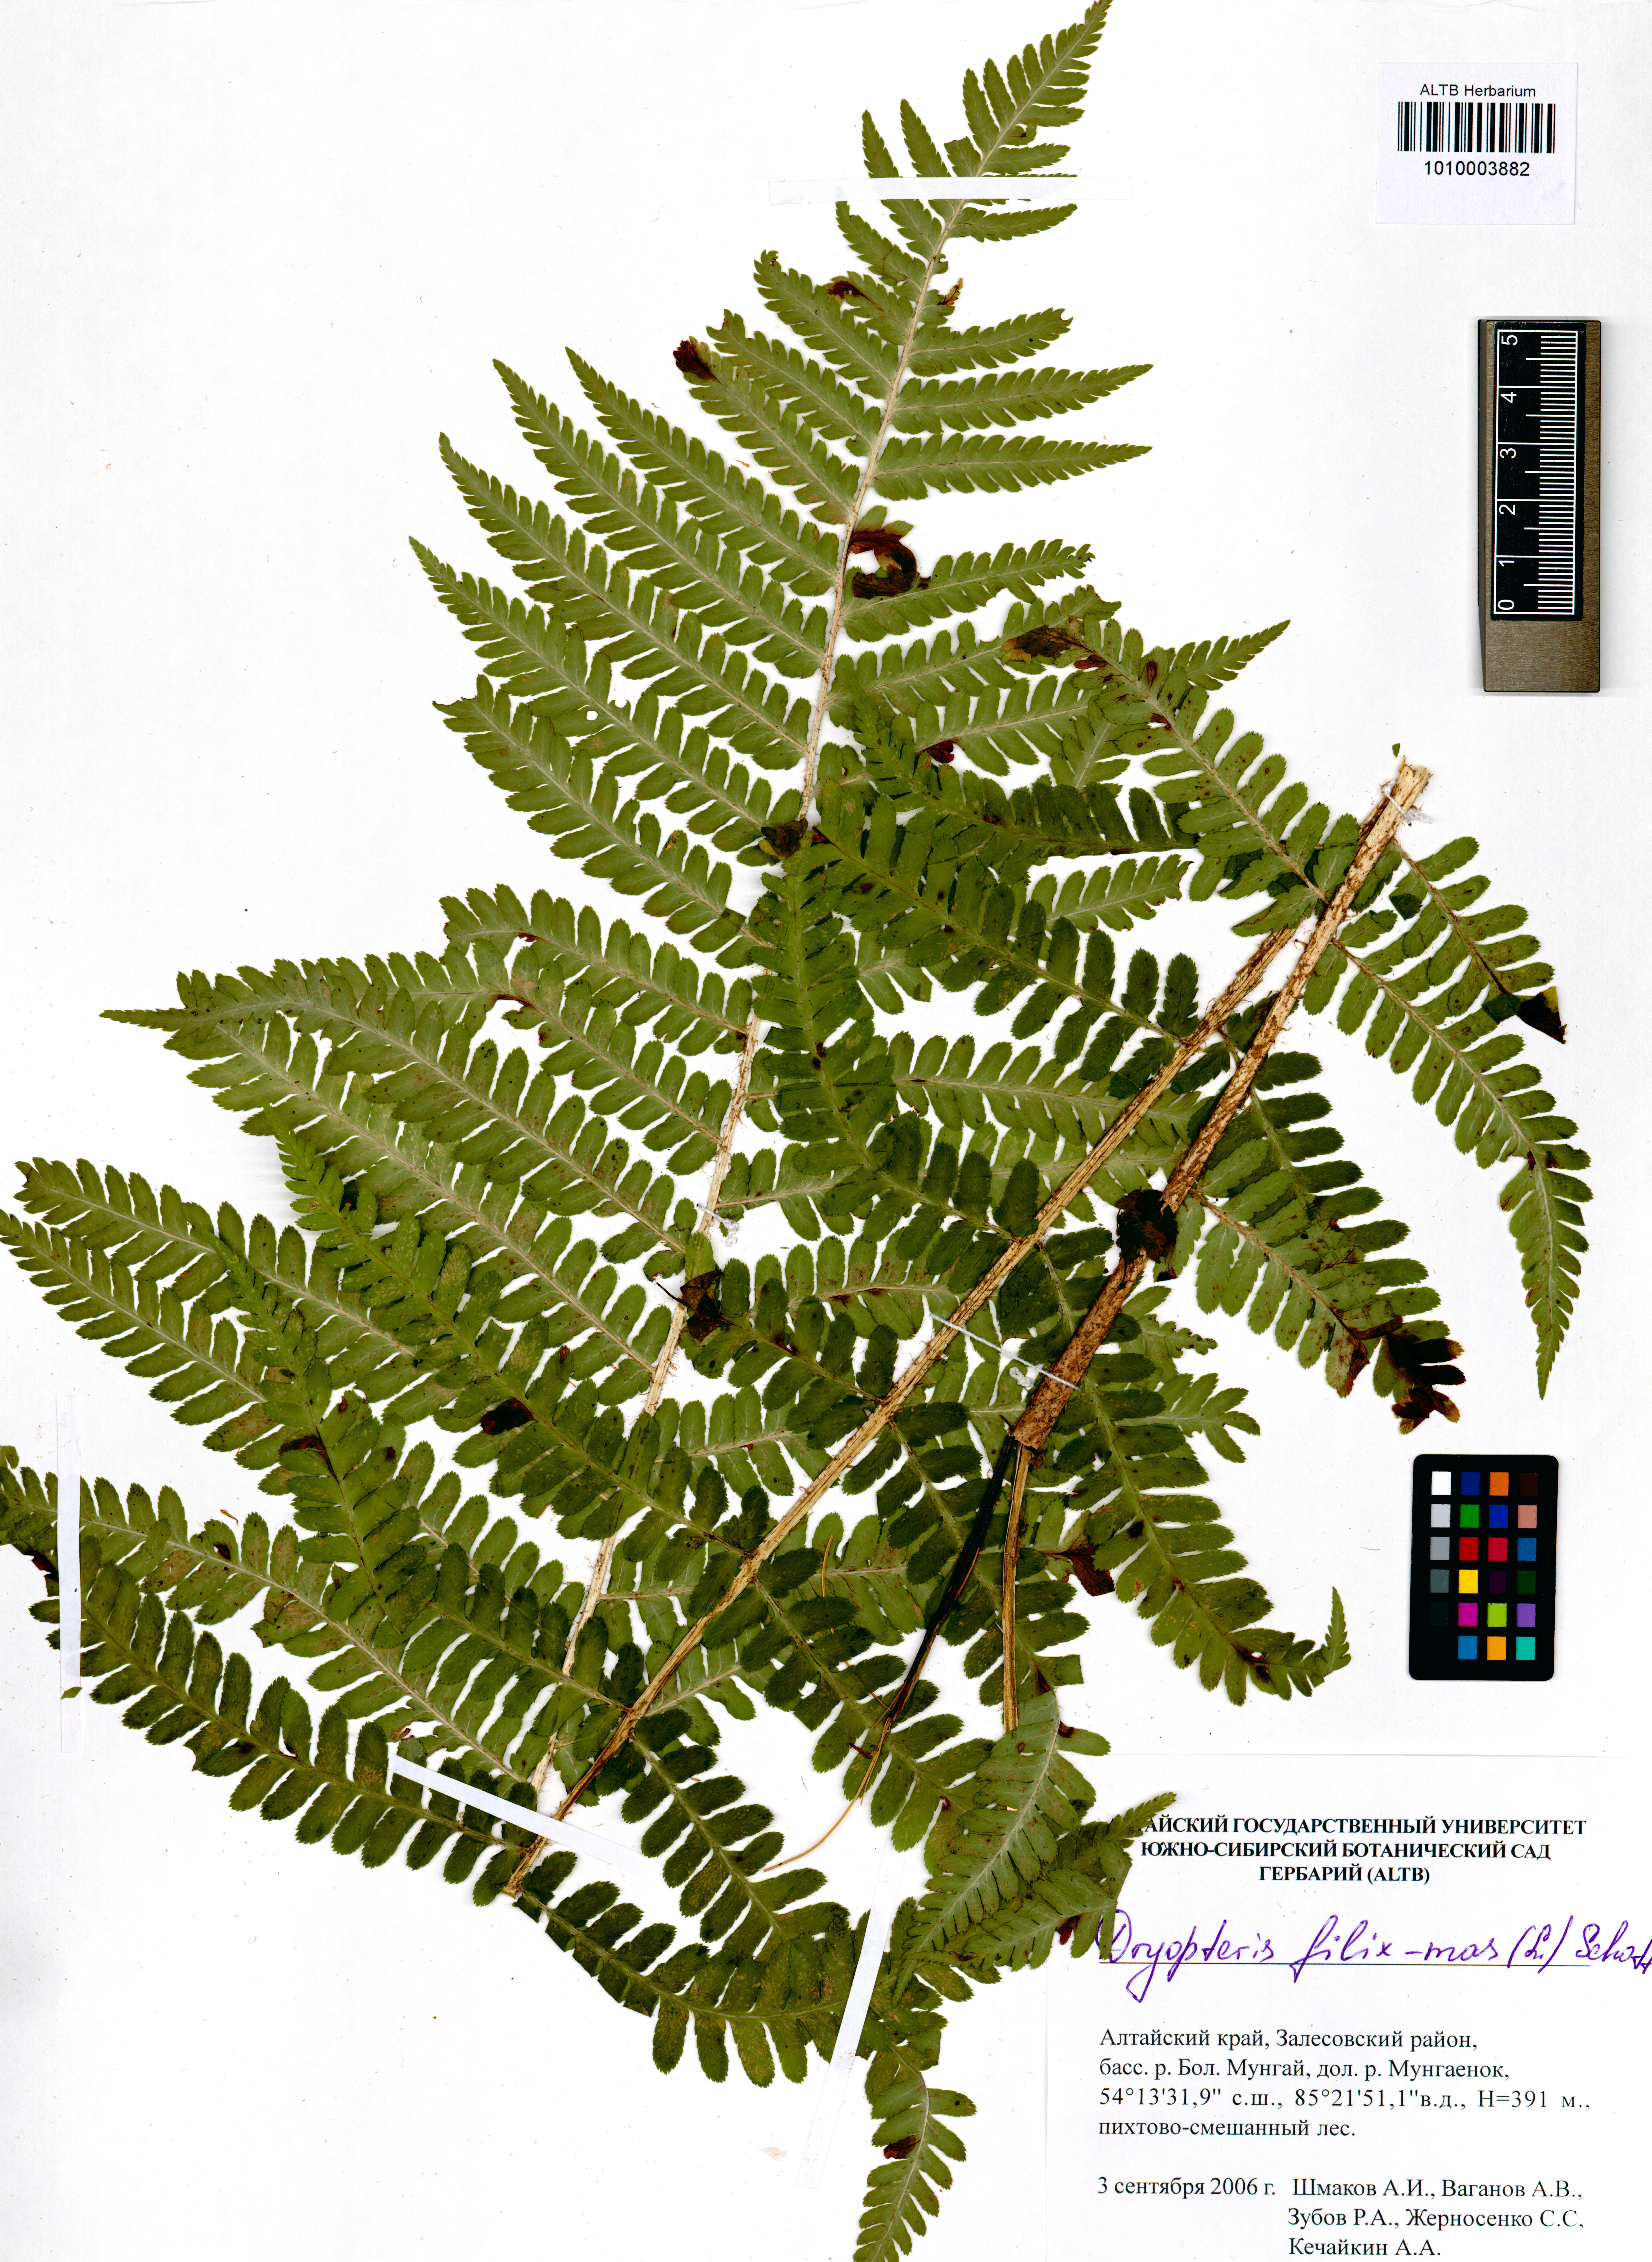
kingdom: Plantae
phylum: Tracheophyta
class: Polypodiopsida
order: Polypodiales
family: Dryopteridaceae
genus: Dryopteris
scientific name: Dryopteris filix-mas
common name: Male fern
